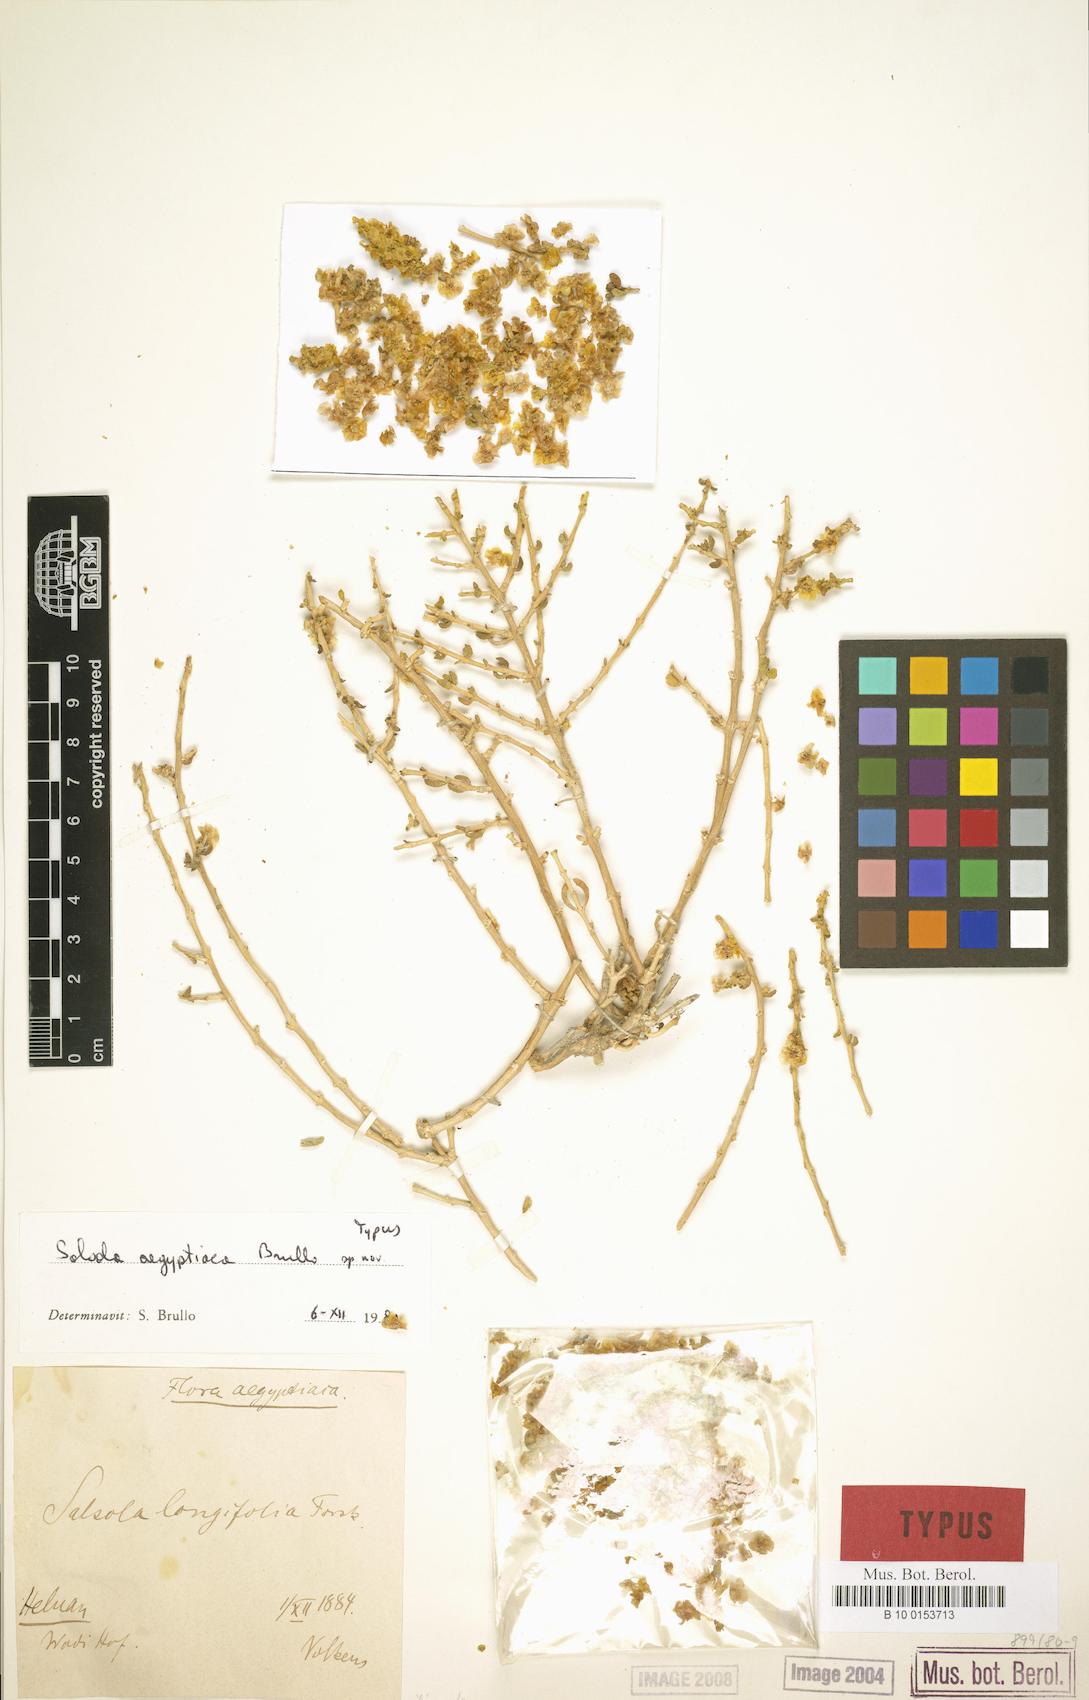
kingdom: Plantae
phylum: Tracheophyta
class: Magnoliopsida
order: Caryophyllales
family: Amaranthaceae
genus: Salsola
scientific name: Salsola
